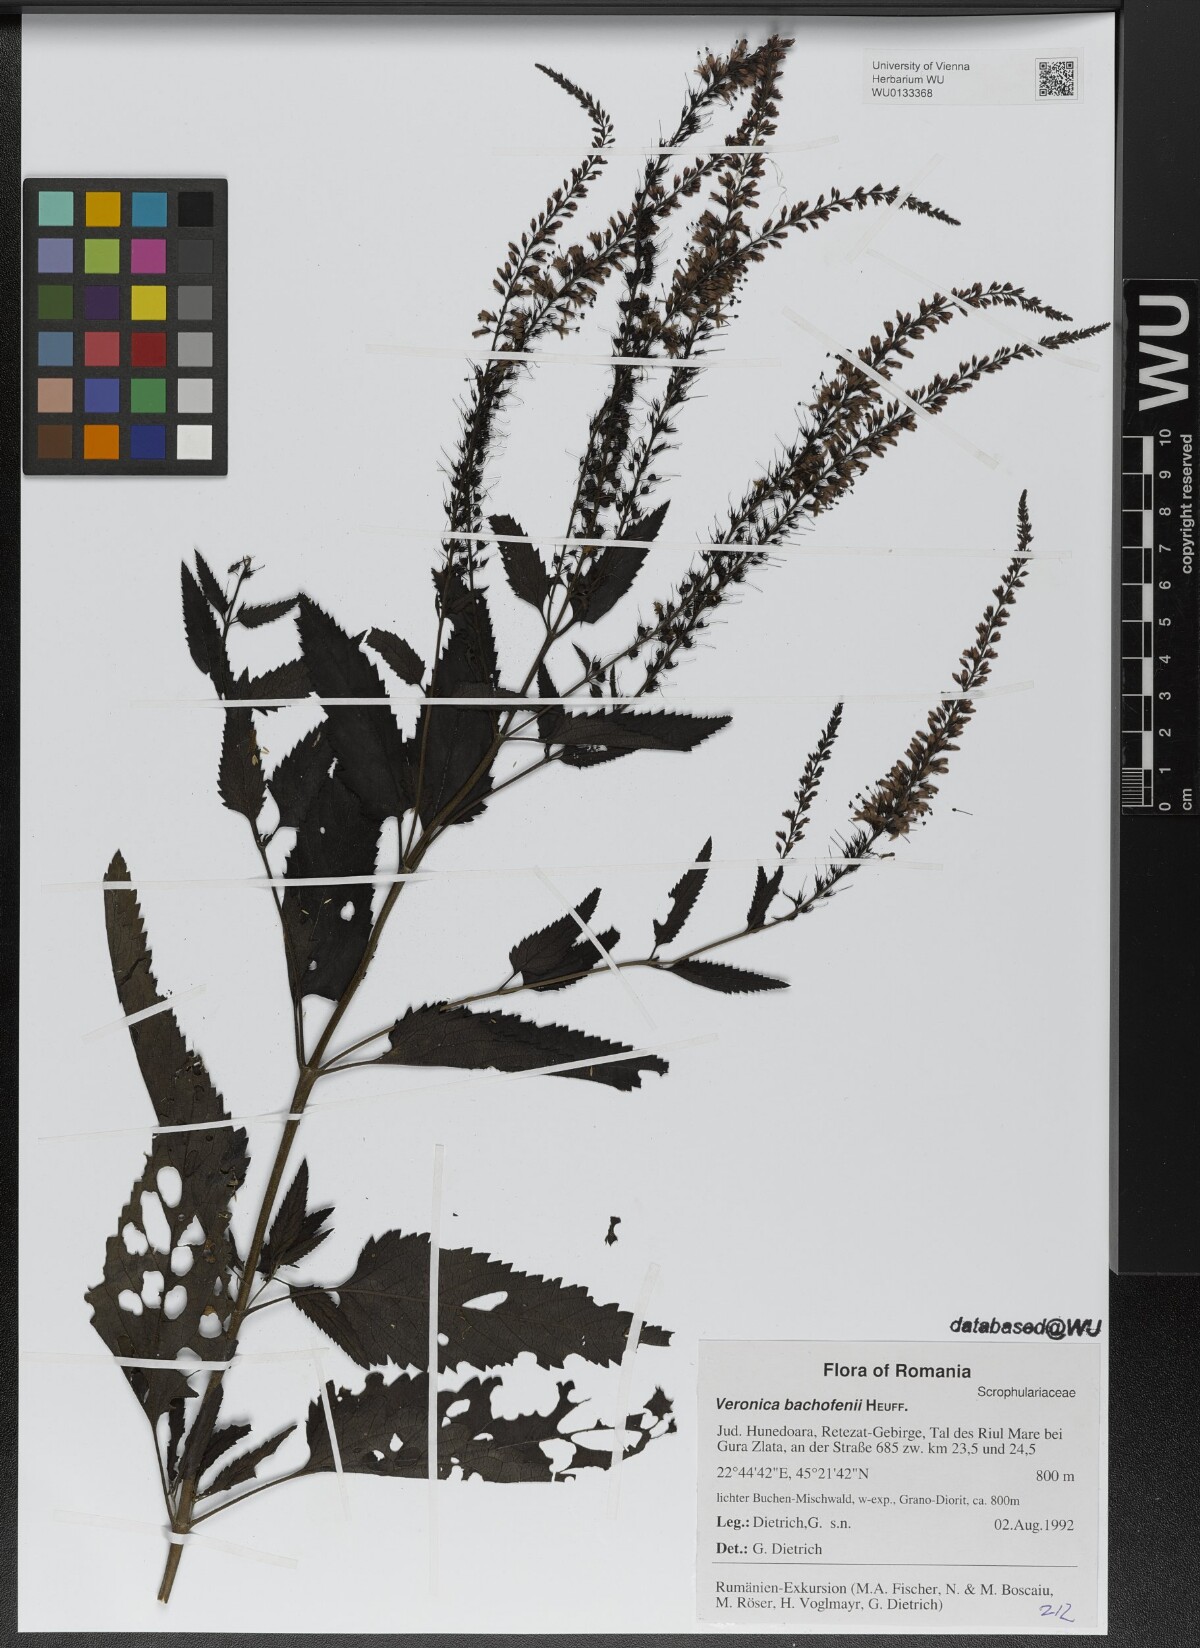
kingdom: Plantae
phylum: Tracheophyta
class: Magnoliopsida
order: Lamiales
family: Plantaginaceae
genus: Veronica
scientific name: Veronica bachofenii
